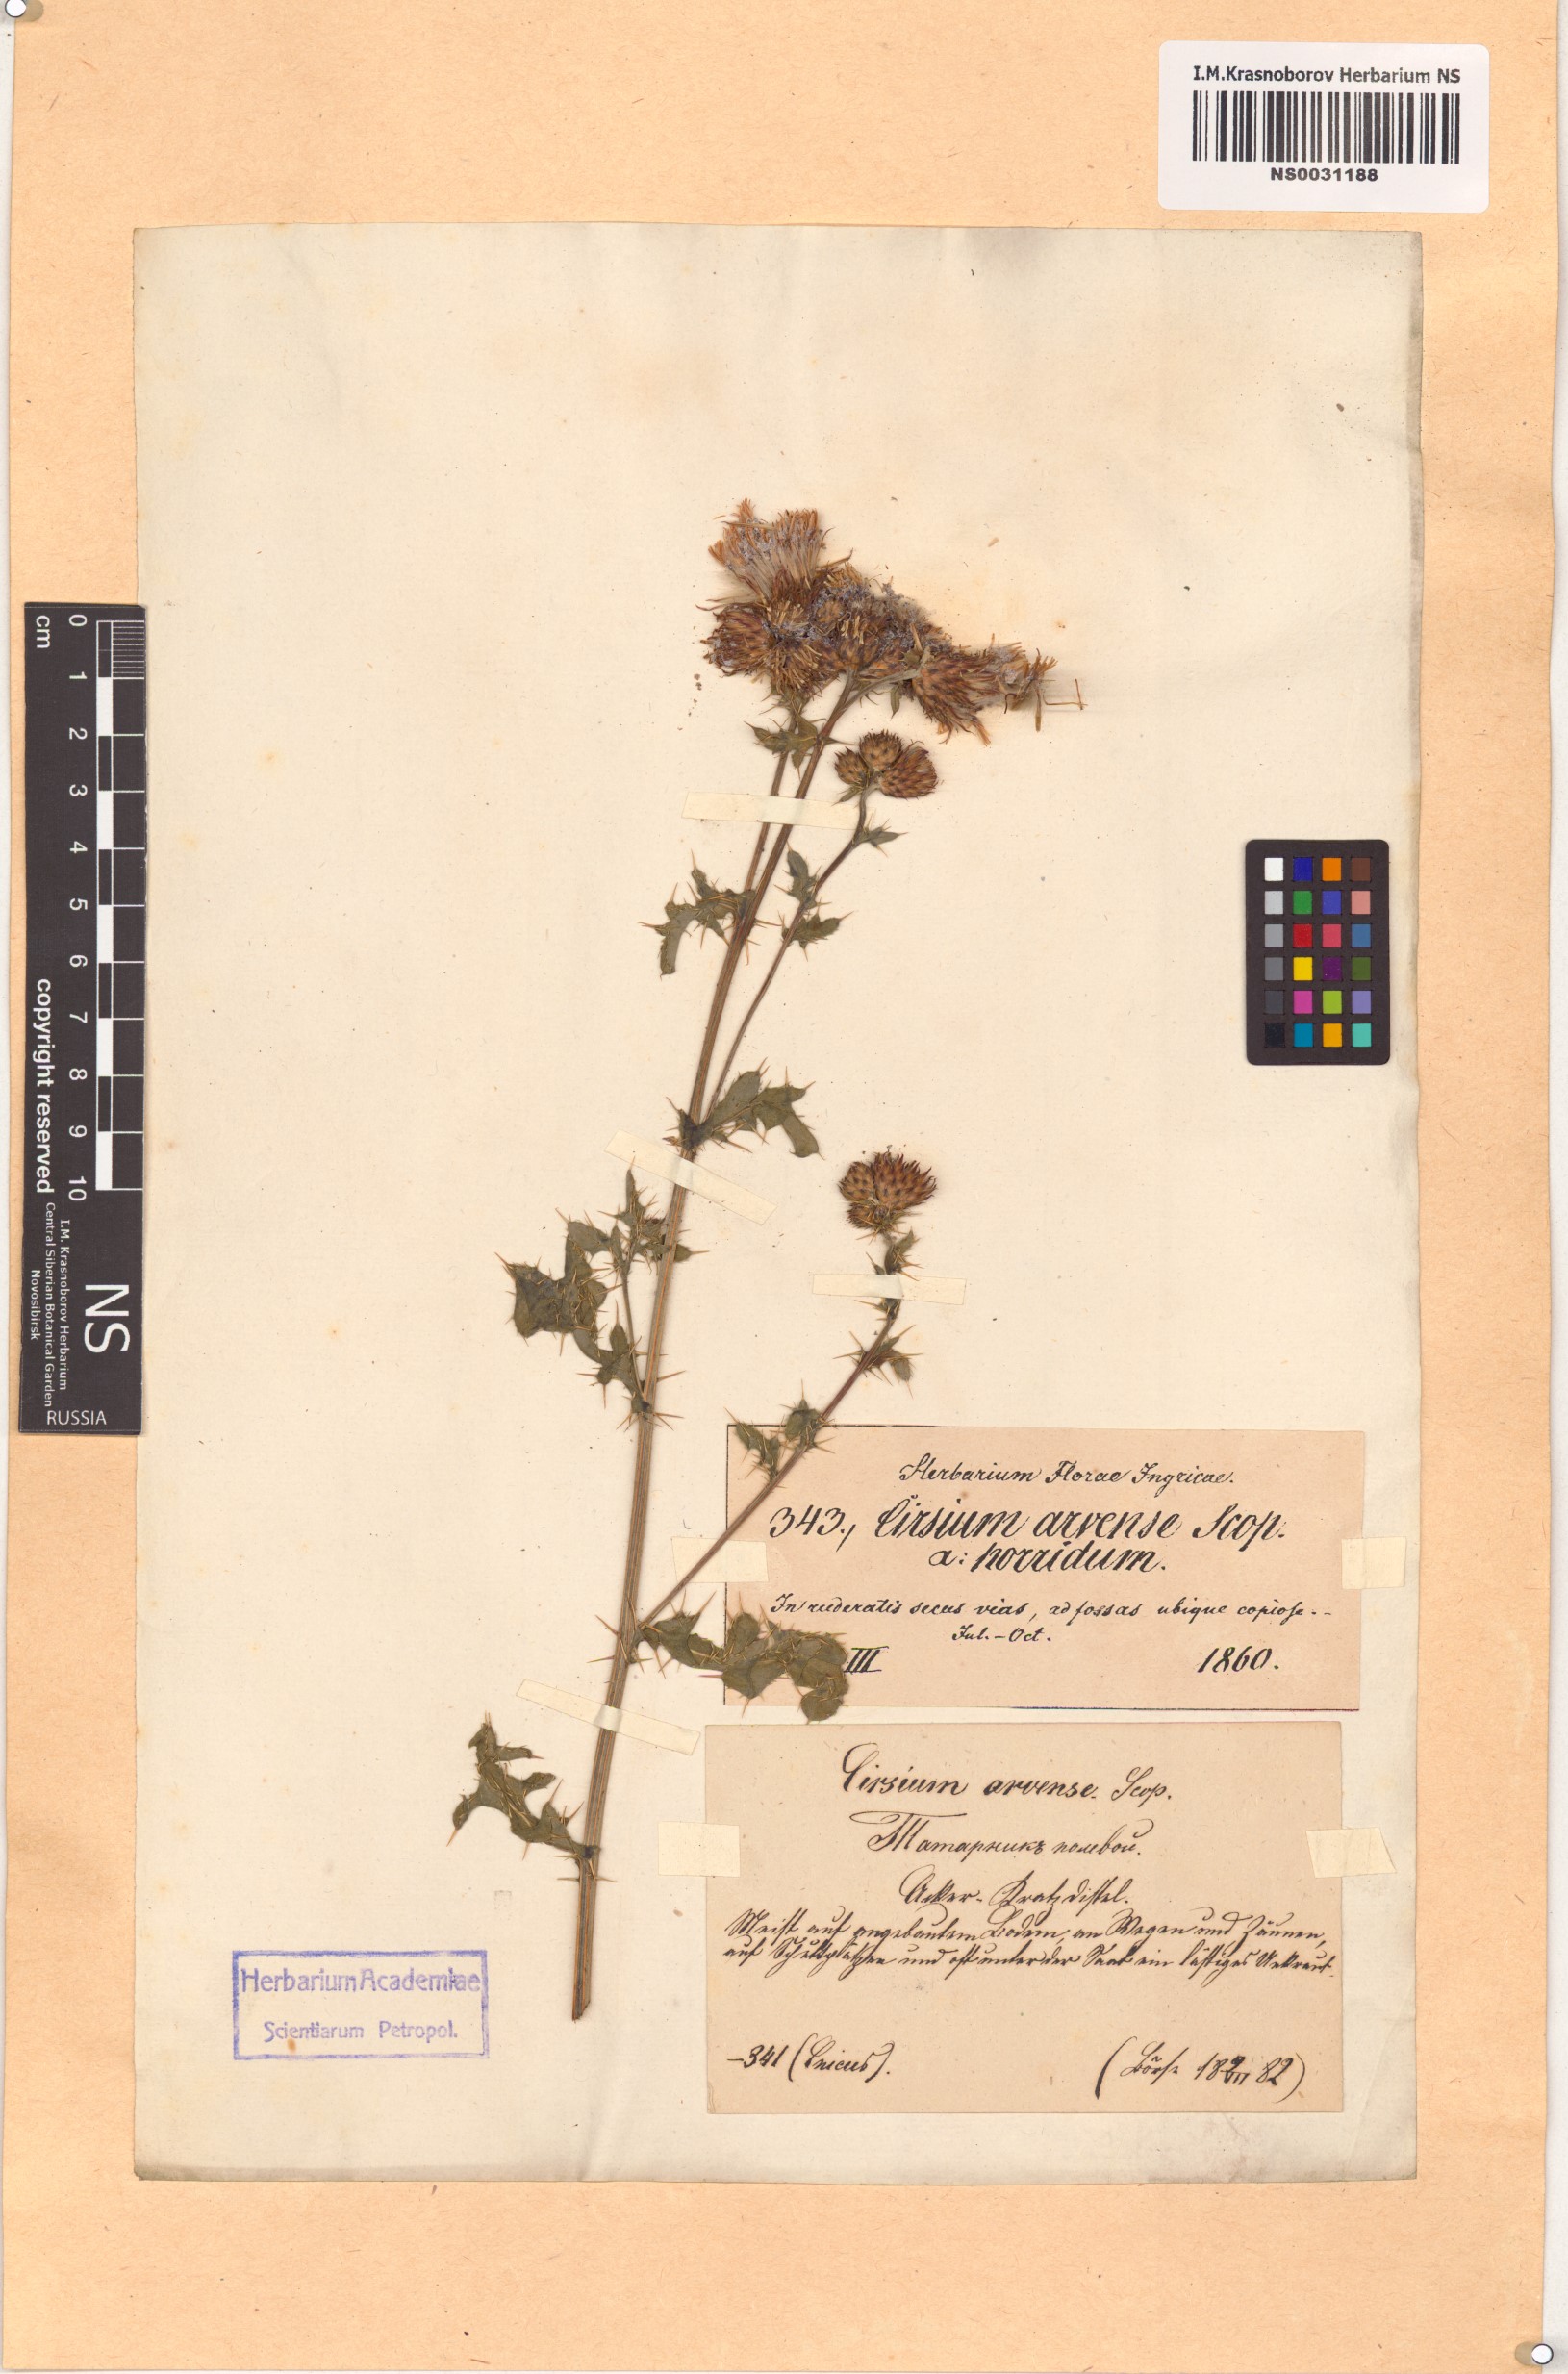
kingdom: Plantae
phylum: Tracheophyta
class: Magnoliopsida
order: Asterales
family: Asteraceae
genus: Cirsium
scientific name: Cirsium arvense
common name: Creeping thistle
